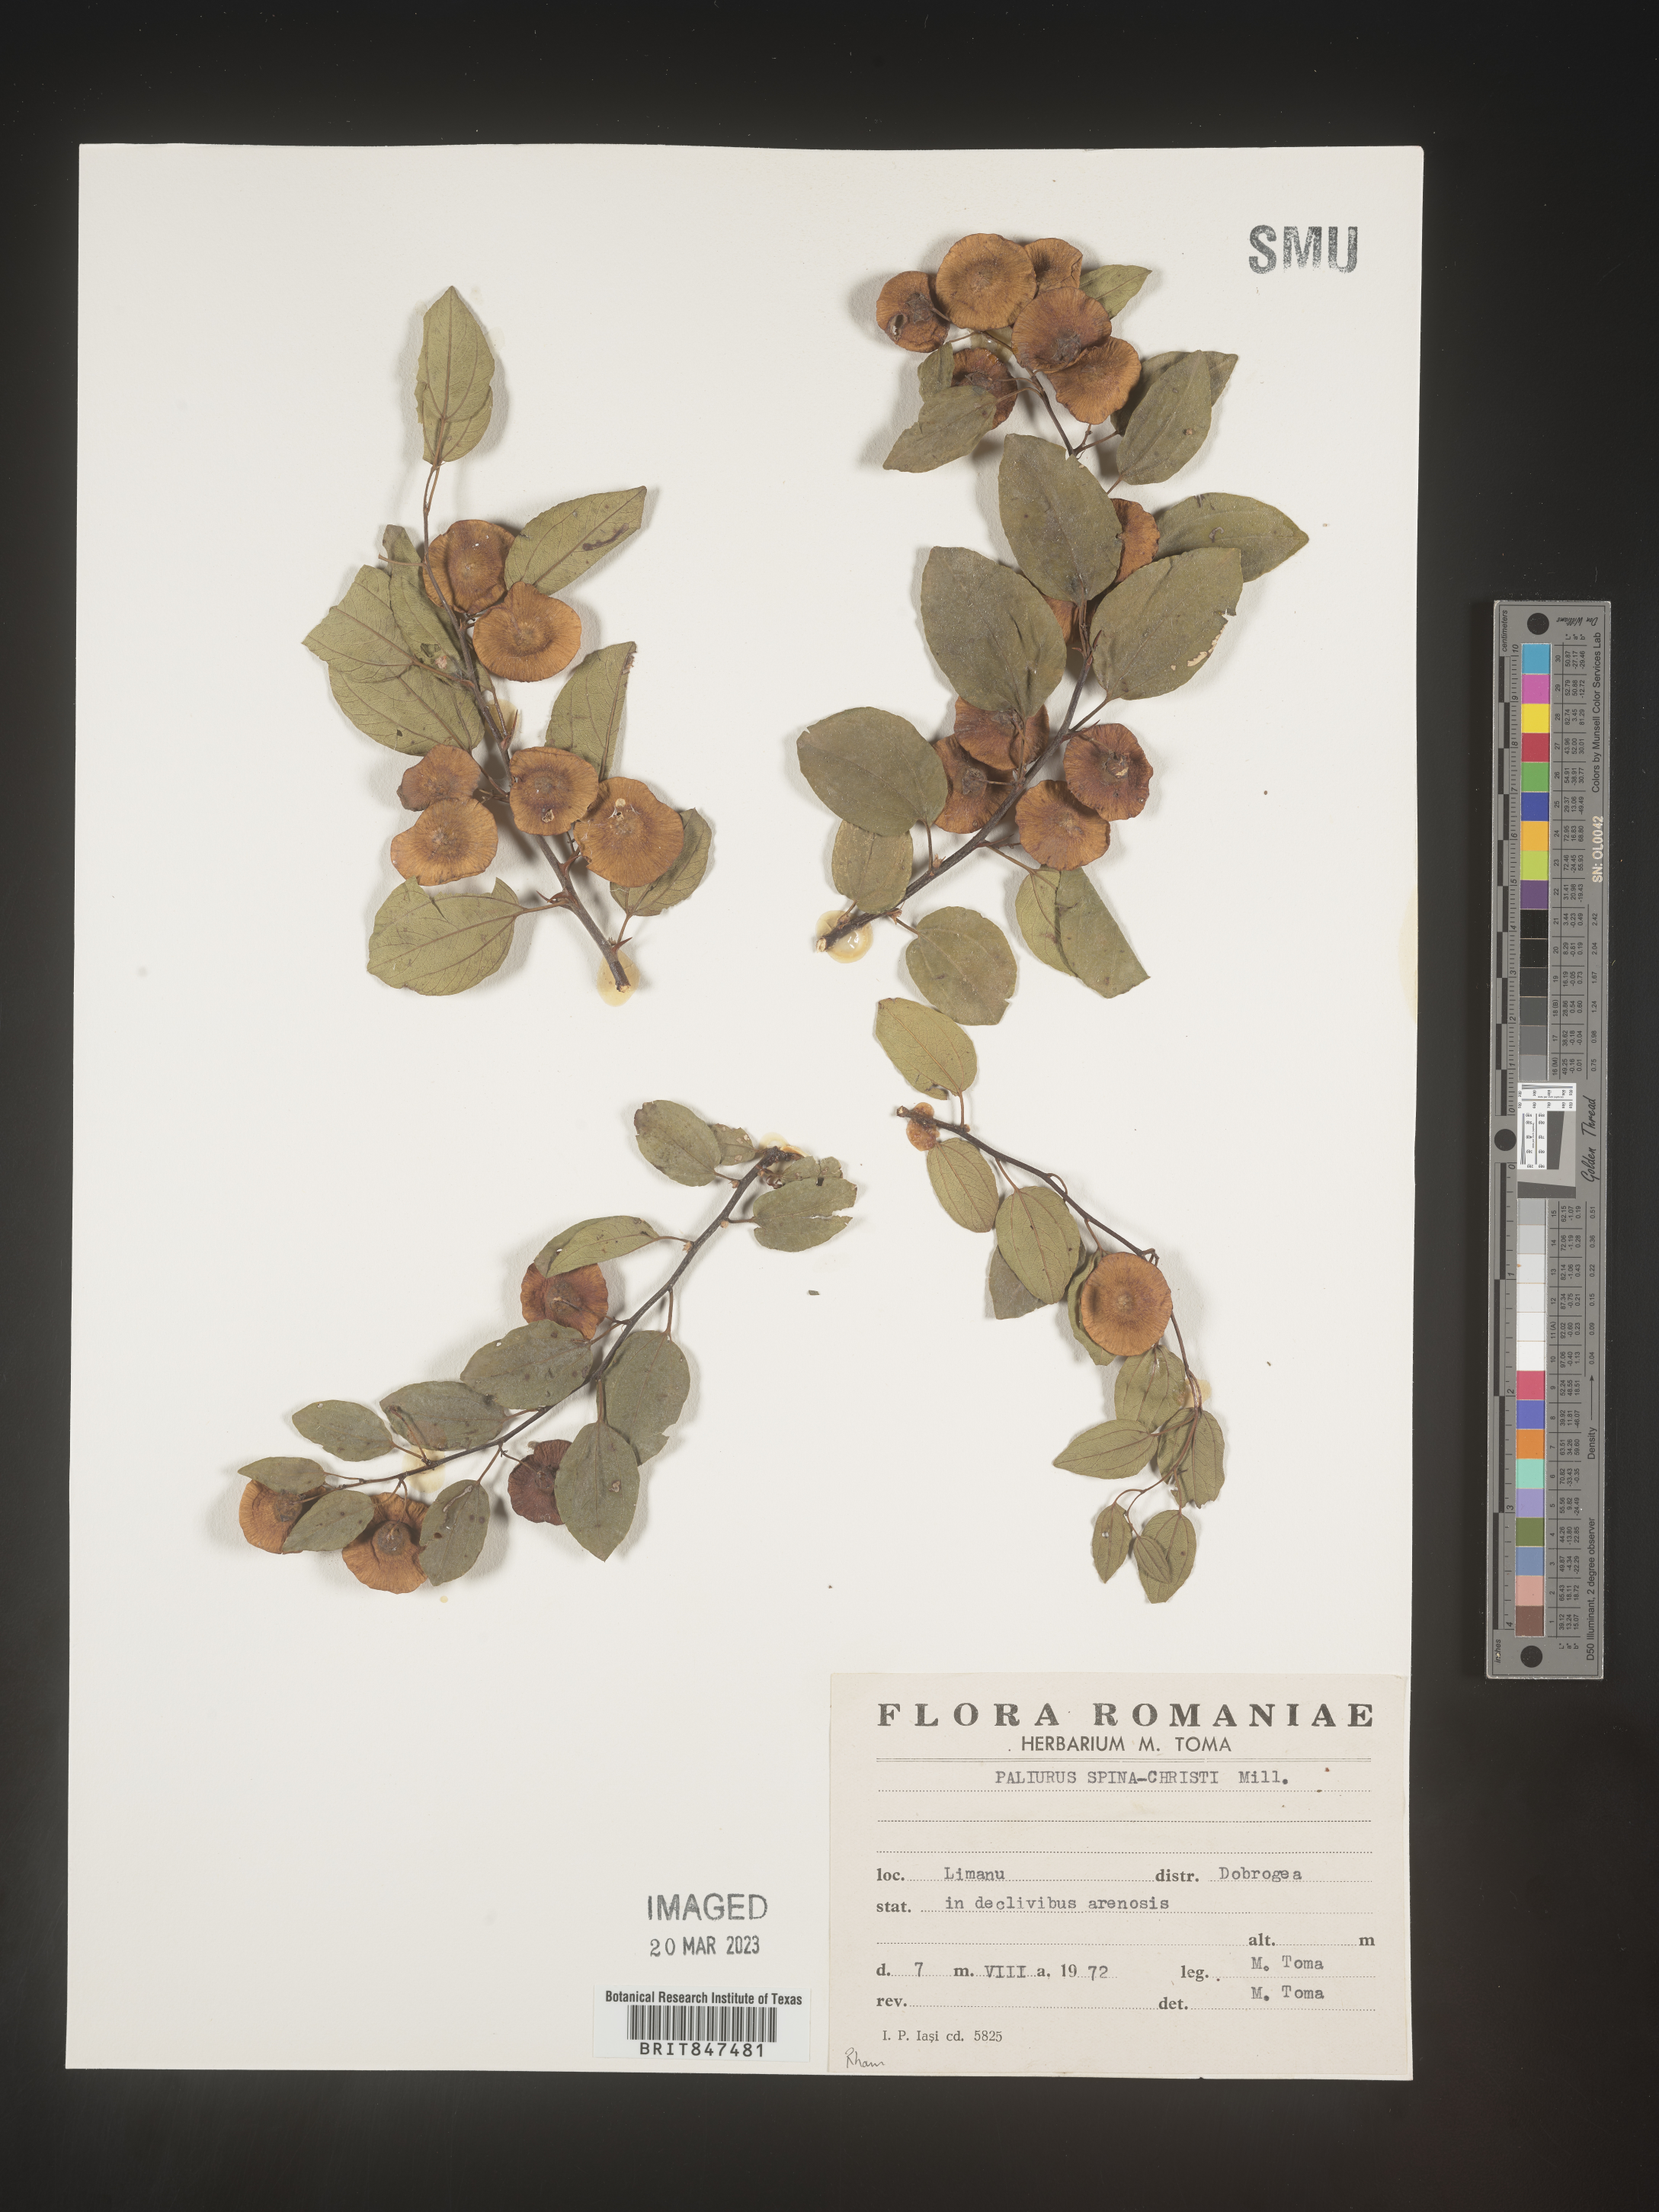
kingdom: Plantae
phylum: Tracheophyta
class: Magnoliopsida
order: Rosales
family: Rhamnaceae
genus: Paliurus
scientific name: Paliurus
